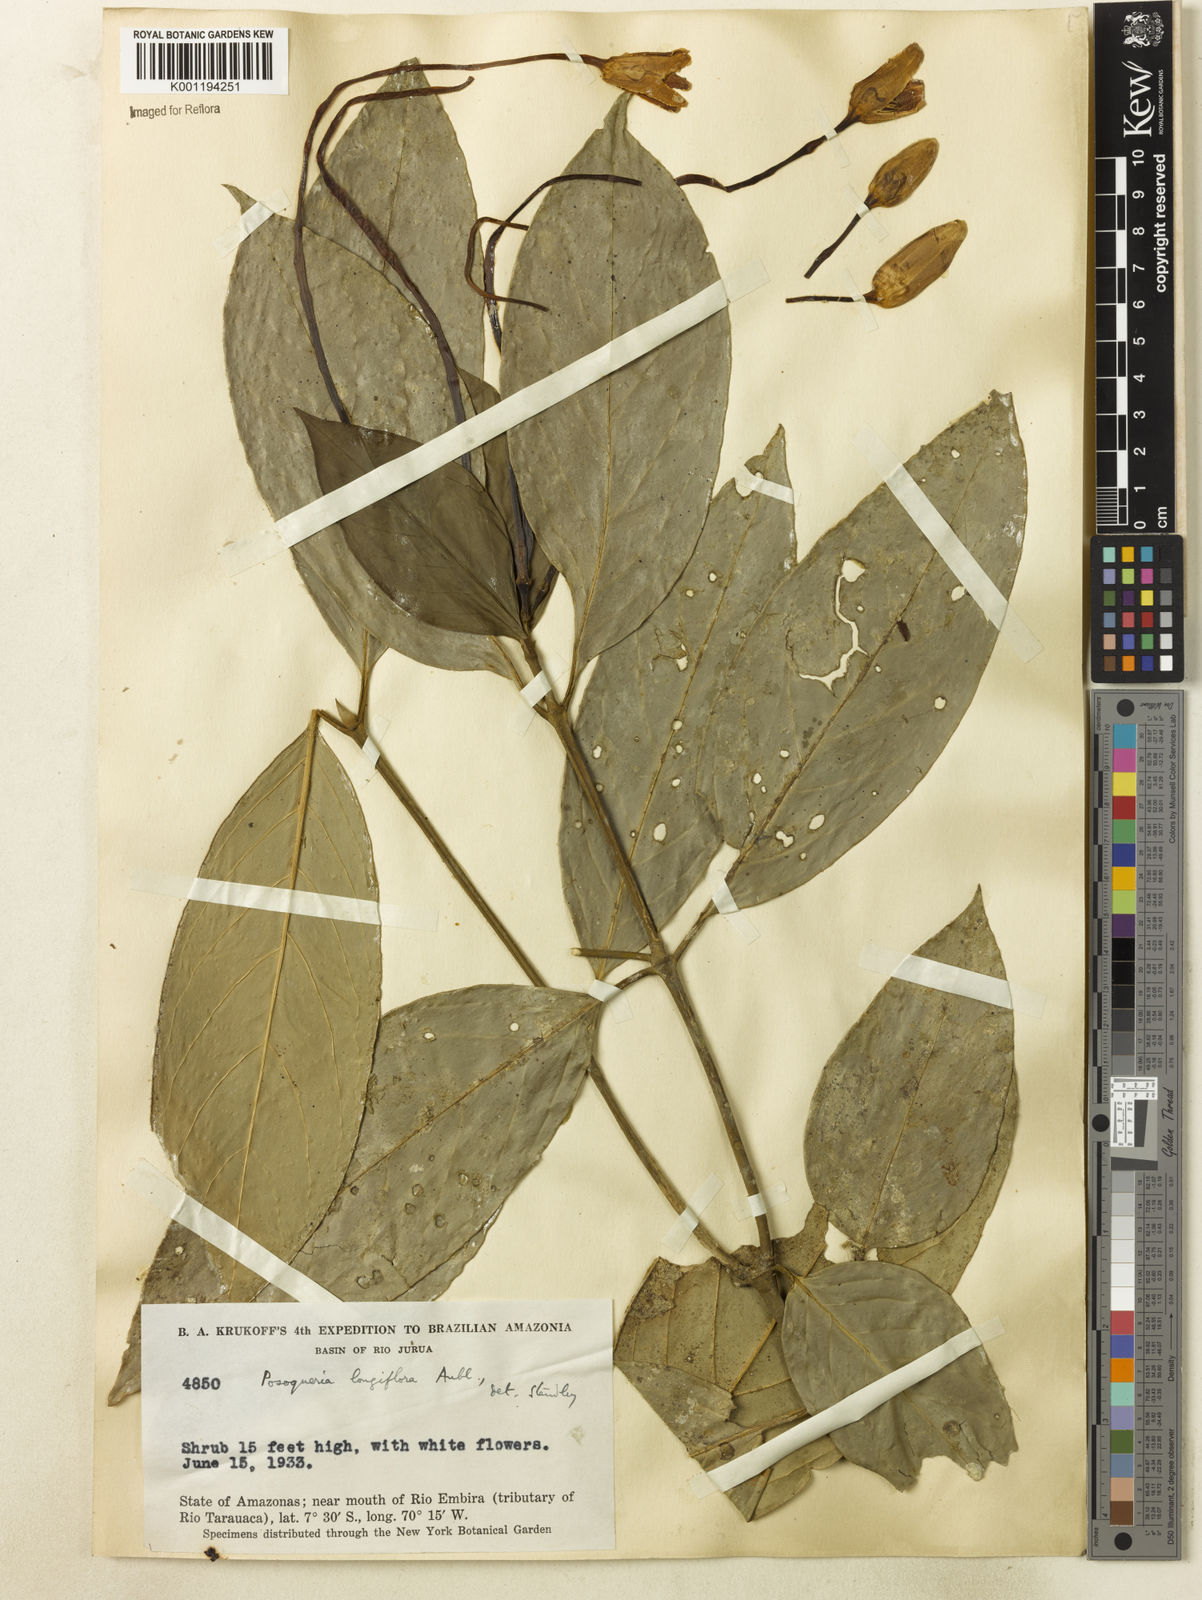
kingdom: Plantae
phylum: Tracheophyta
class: Magnoliopsida
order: Gentianales
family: Rubiaceae
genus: Posoqueria
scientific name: Posoqueria longiflora
